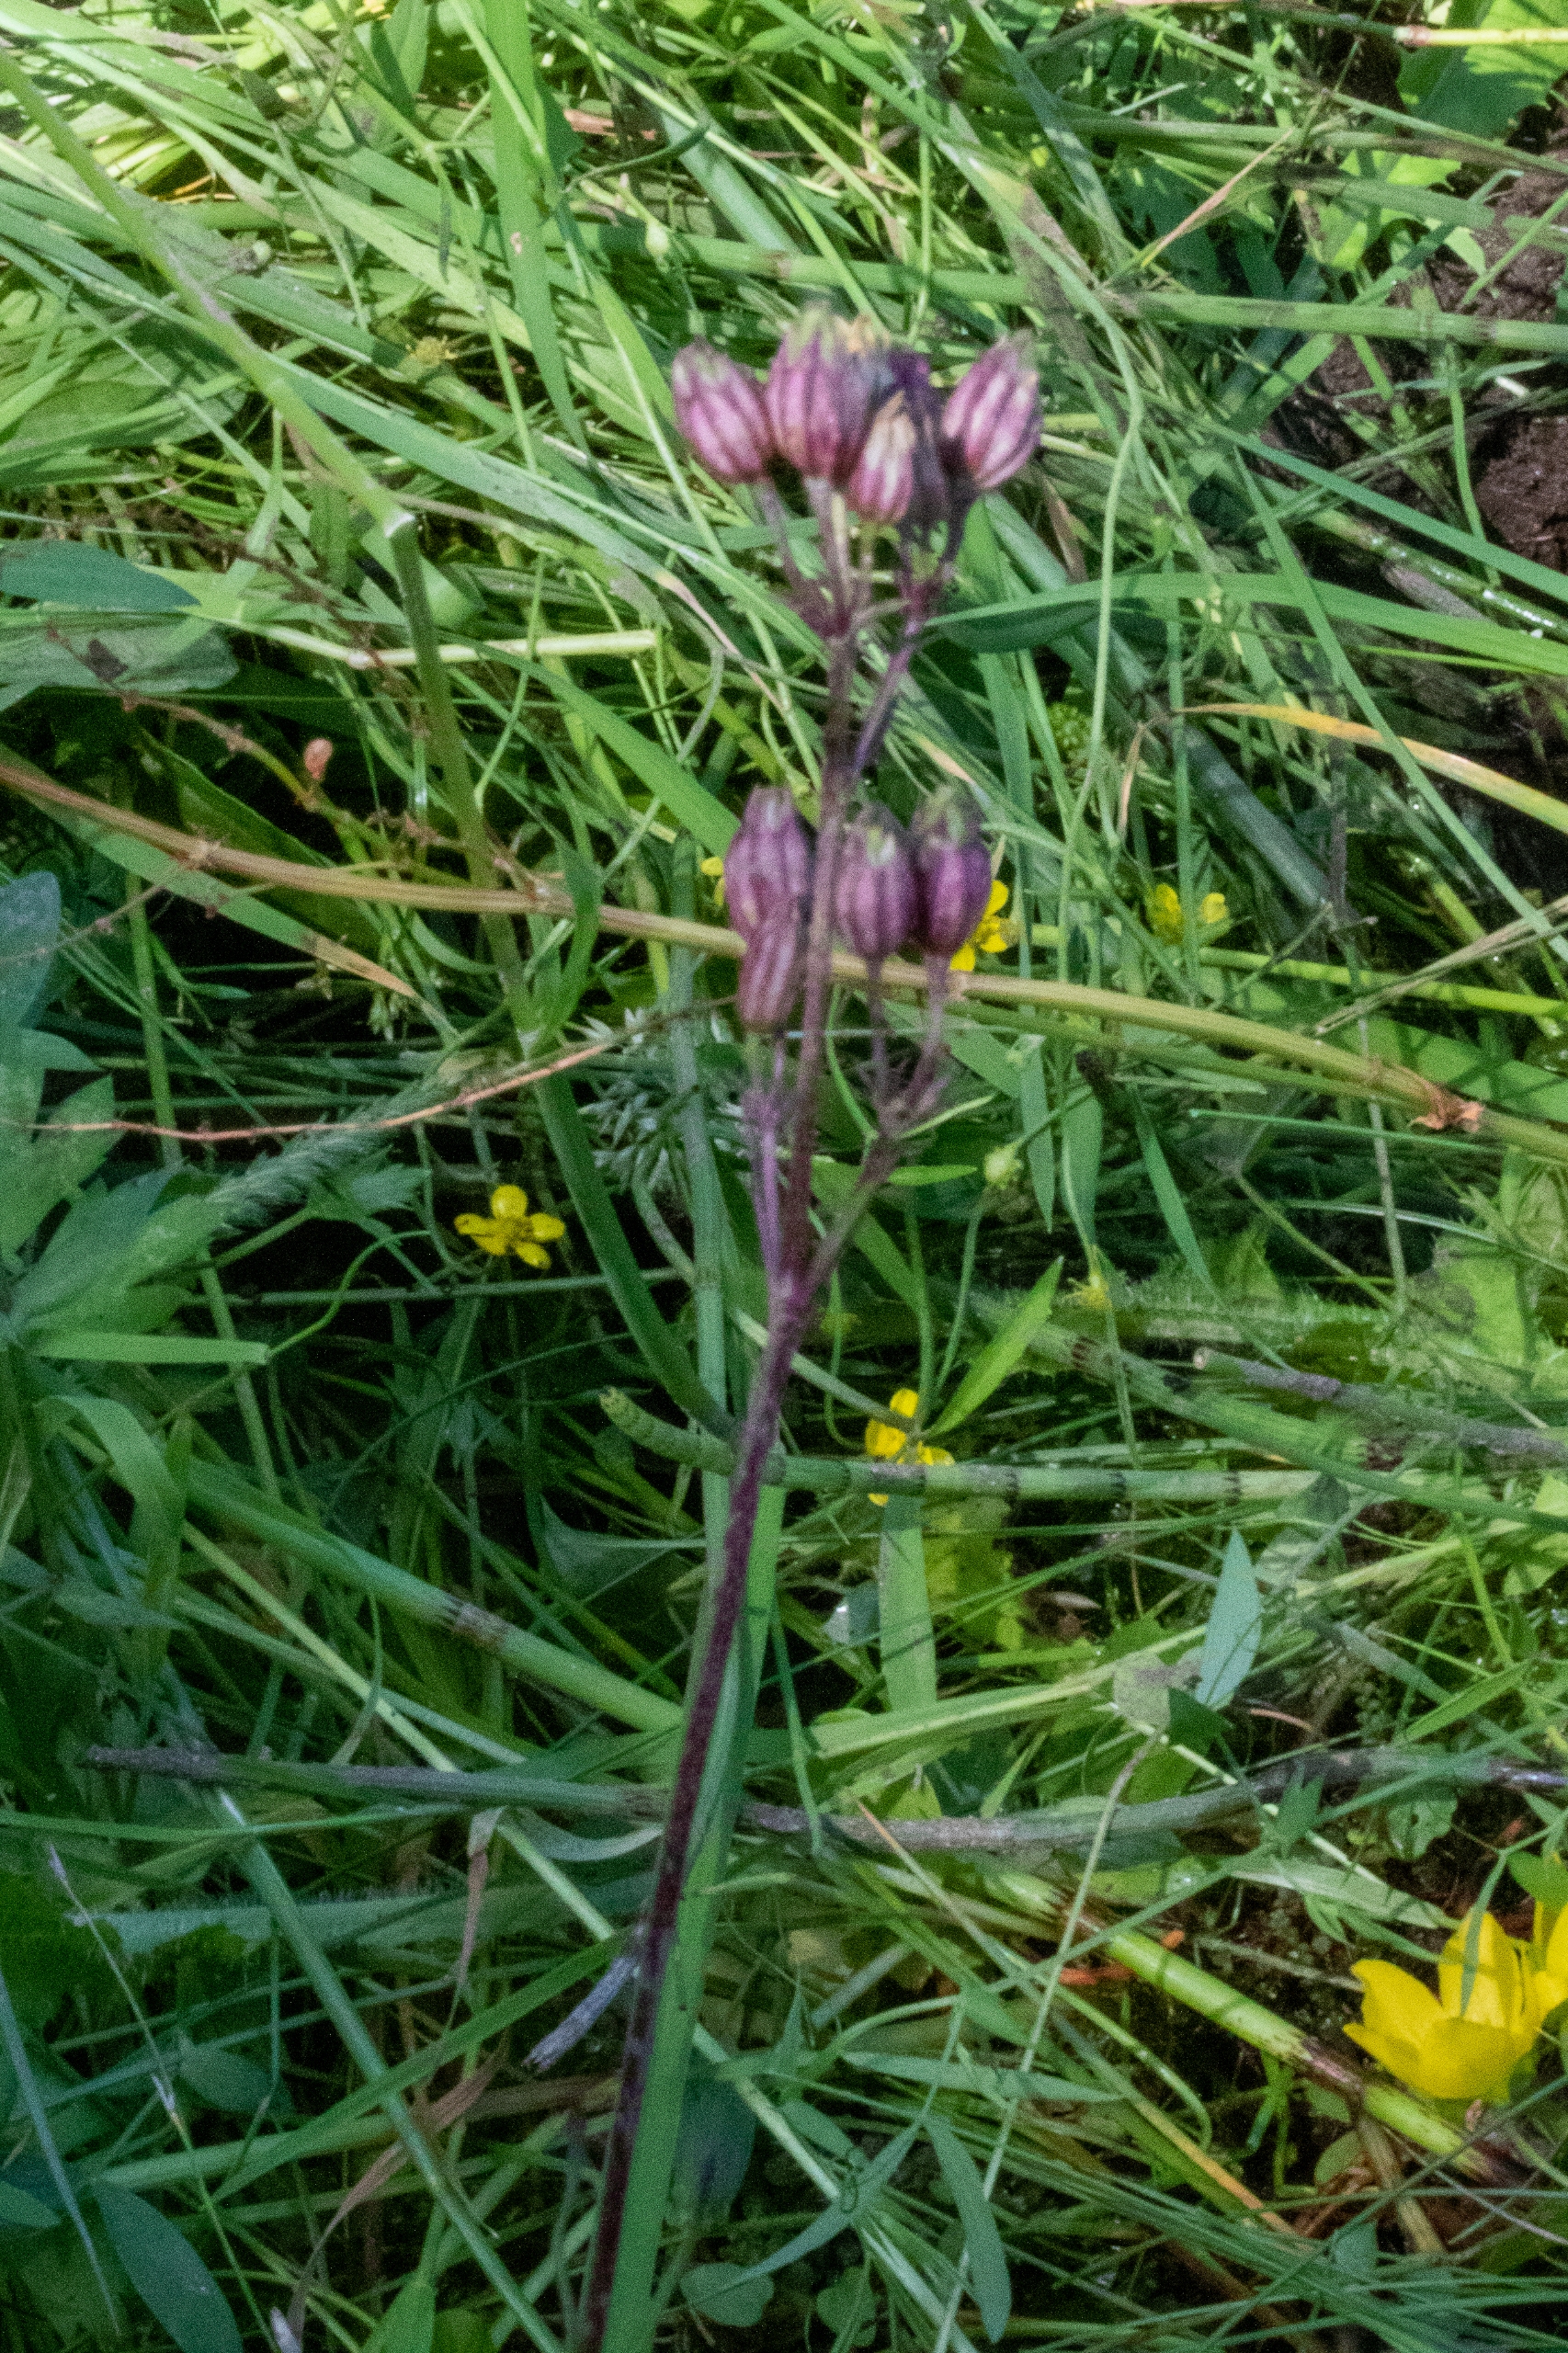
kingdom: Plantae
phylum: Tracheophyta
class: Magnoliopsida
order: Caryophyllales
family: Caryophyllaceae
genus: Silene
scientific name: Silene flos-cuculi
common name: Trævlekrone
